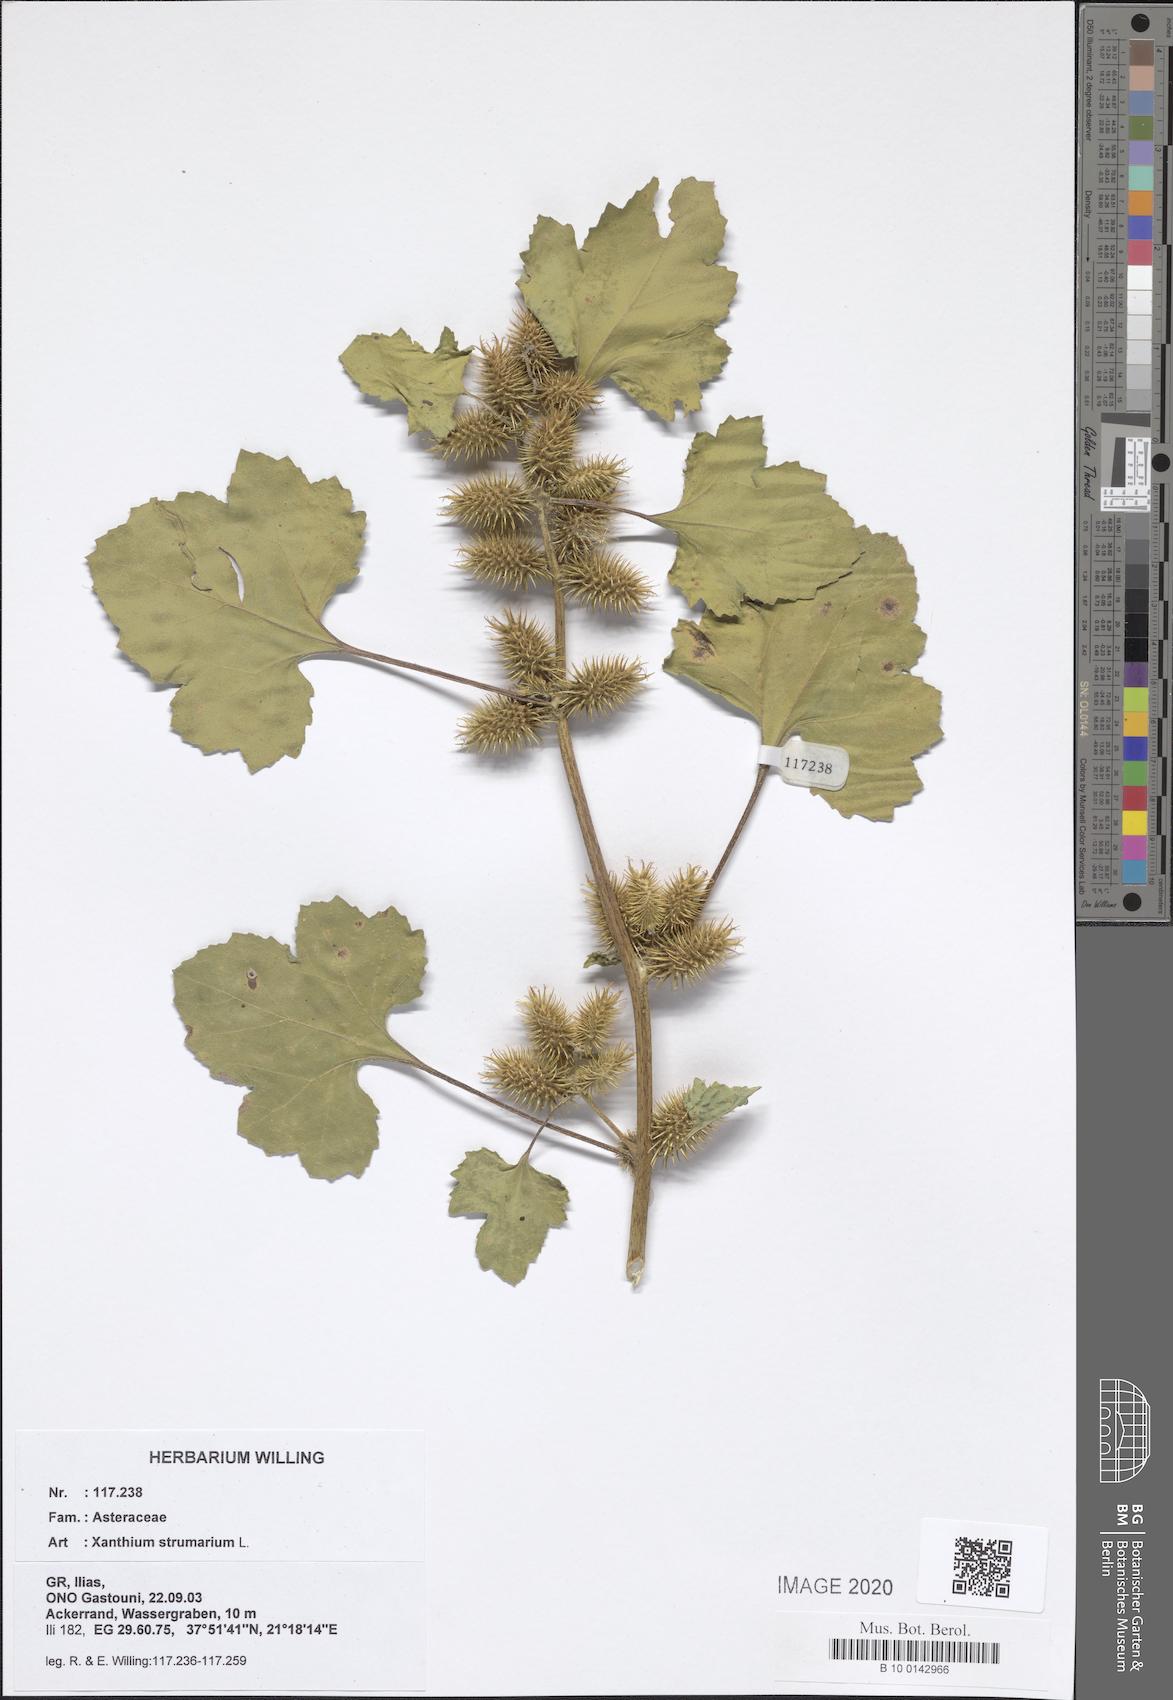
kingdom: Plantae
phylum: Tracheophyta
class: Magnoliopsida
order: Asterales
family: Asteraceae
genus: Xanthium
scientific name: Xanthium strumarium
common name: Rough cocklebur
